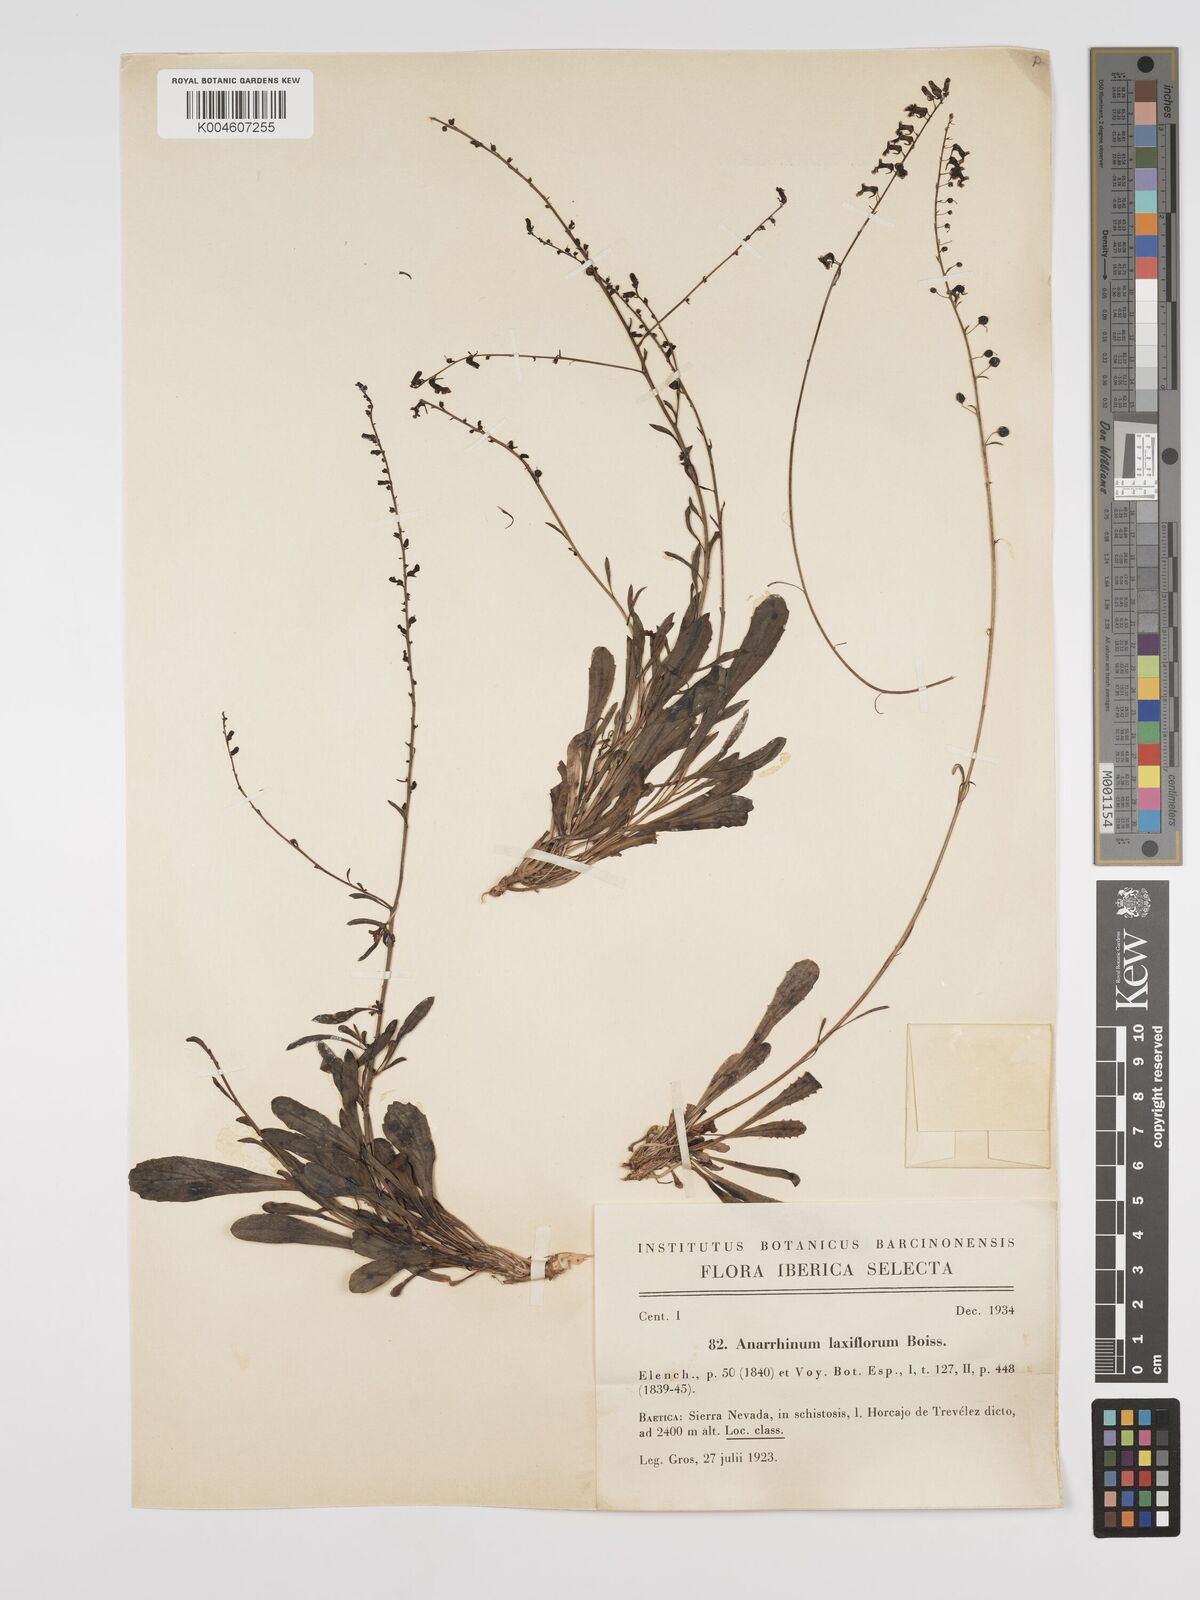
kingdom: Plantae
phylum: Tracheophyta
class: Magnoliopsida
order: Lamiales
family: Plantaginaceae
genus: Anarrhinum
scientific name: Anarrhinum laxiflorum
